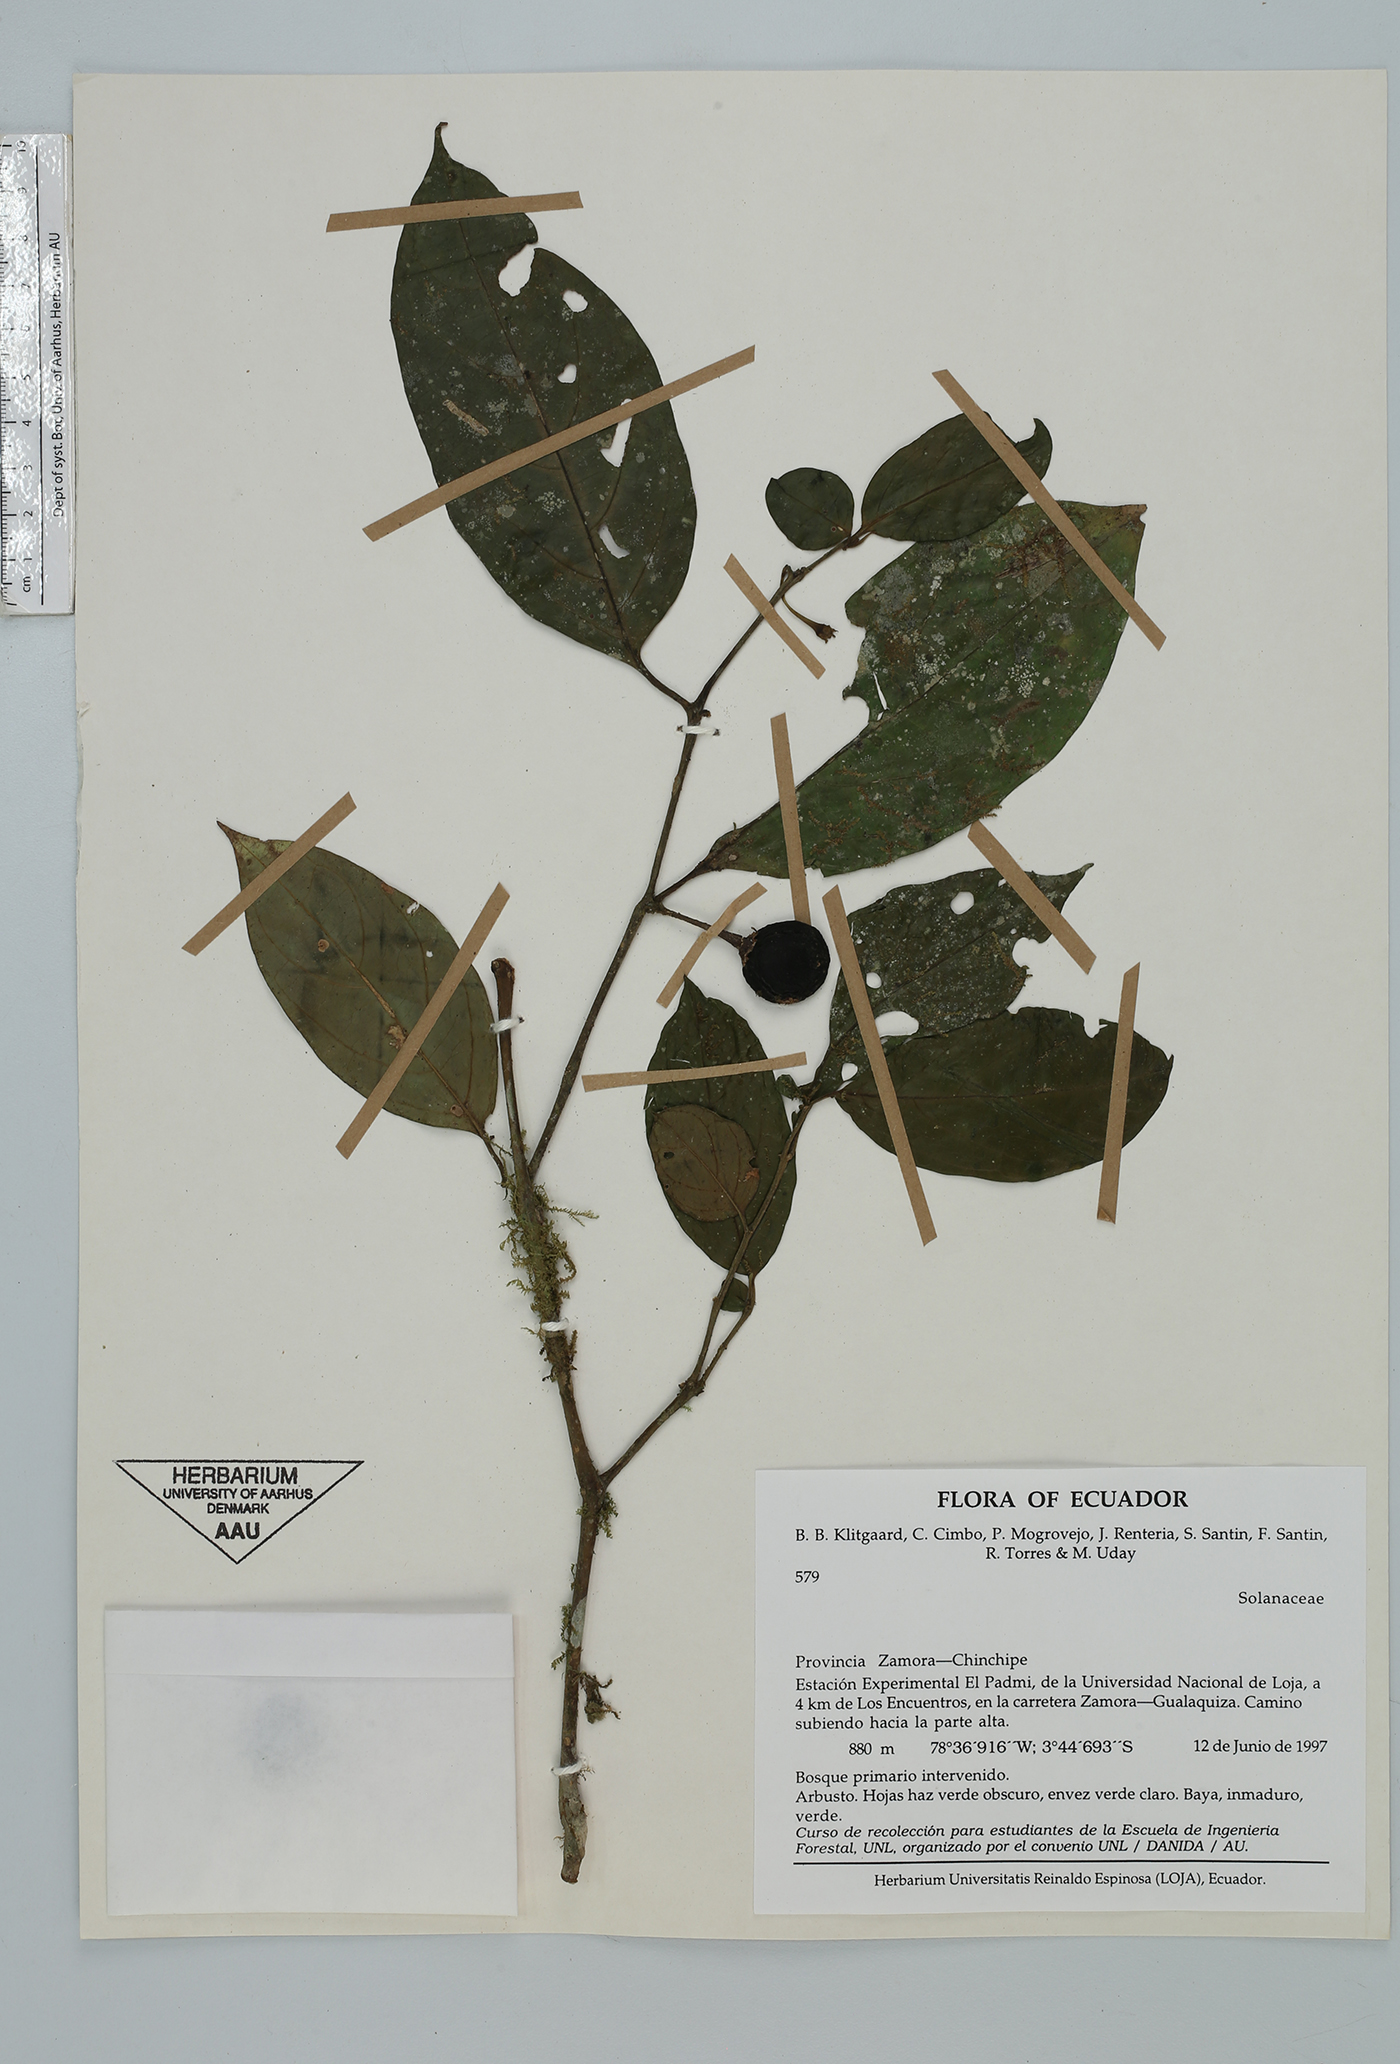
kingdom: Plantae
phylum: Tracheophyta
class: Magnoliopsida
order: Solanales
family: Solanaceae
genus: Solanum
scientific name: Solanum
